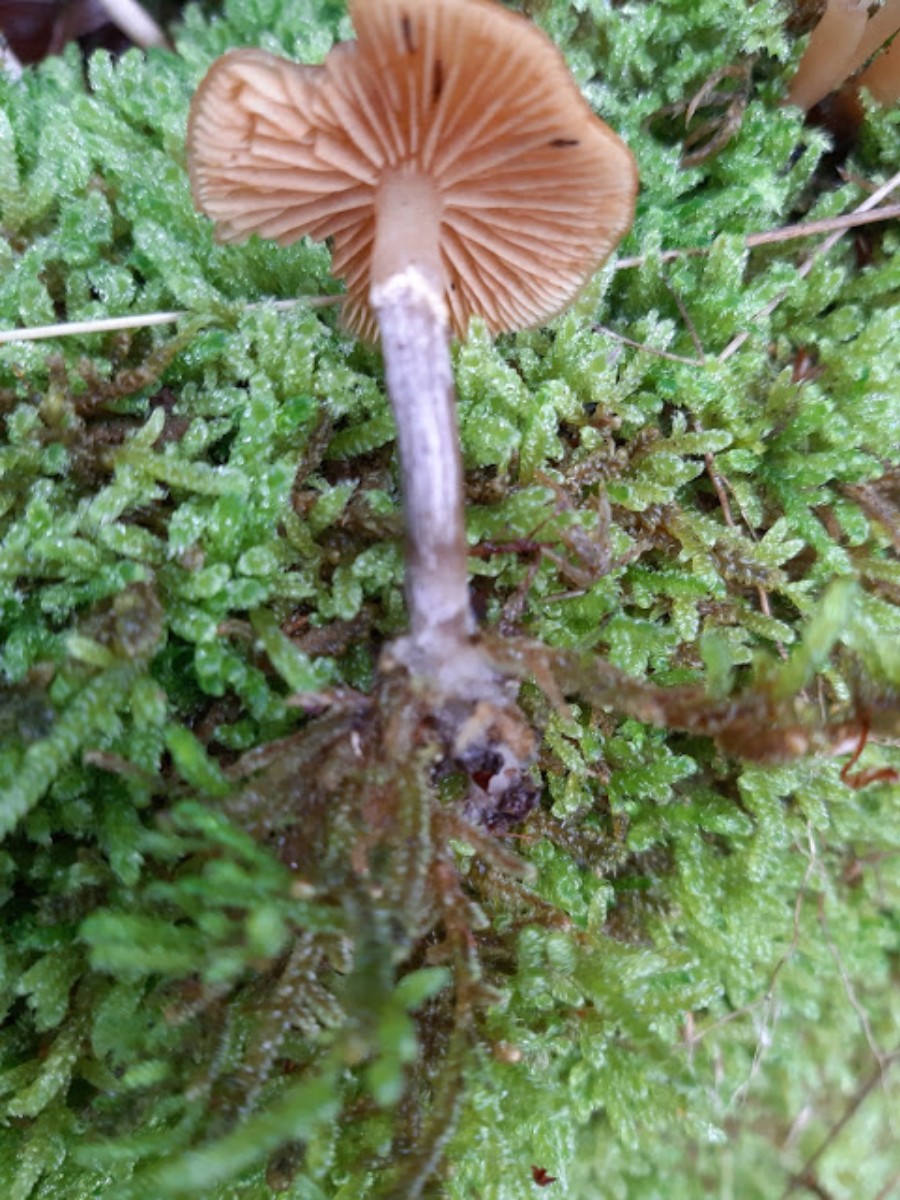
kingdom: Fungi
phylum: Basidiomycota
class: Agaricomycetes
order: Agaricales
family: Hymenogastraceae
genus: Galerina
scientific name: Galerina marginata
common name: randbæltet hjelmhat
